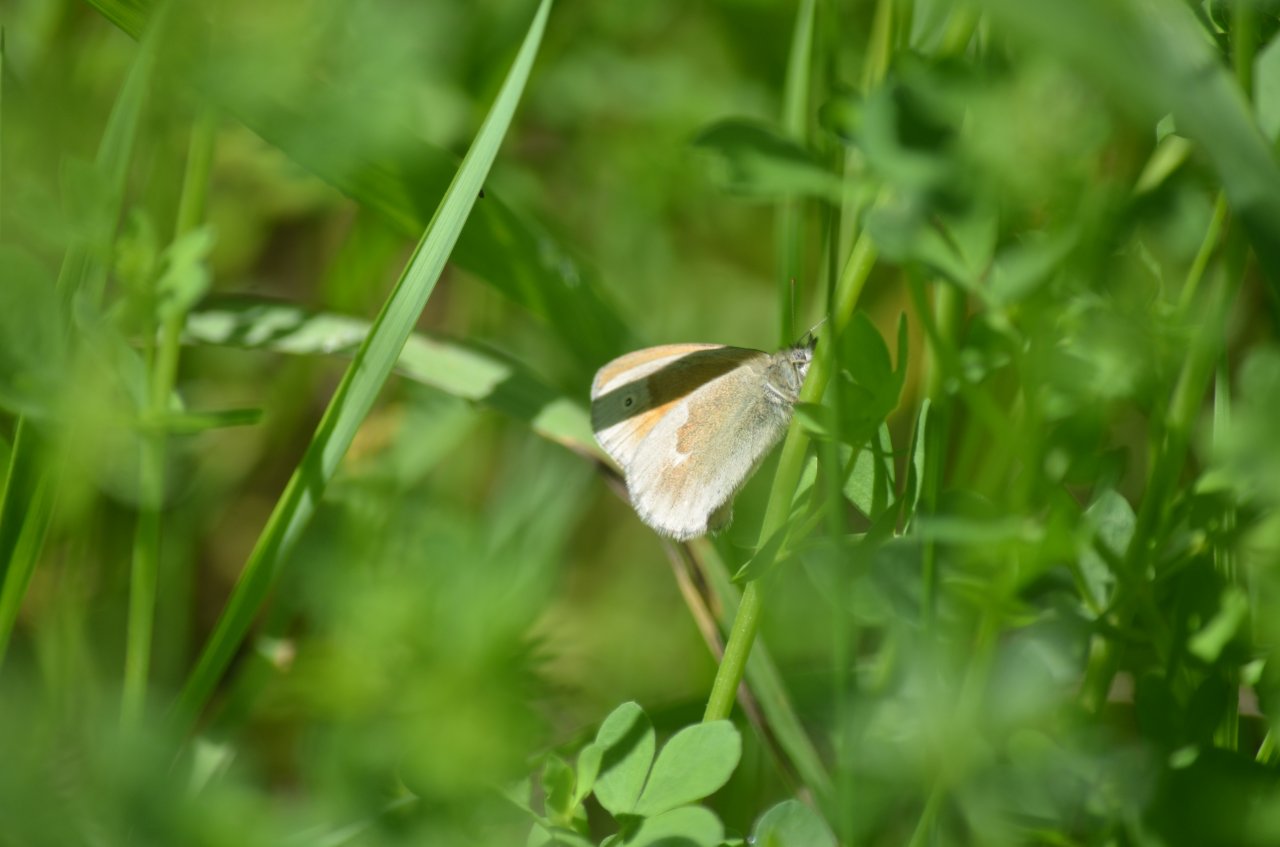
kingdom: Animalia
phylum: Arthropoda
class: Insecta
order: Lepidoptera
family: Nymphalidae
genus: Coenonympha
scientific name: Coenonympha tullia
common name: Large Heath
